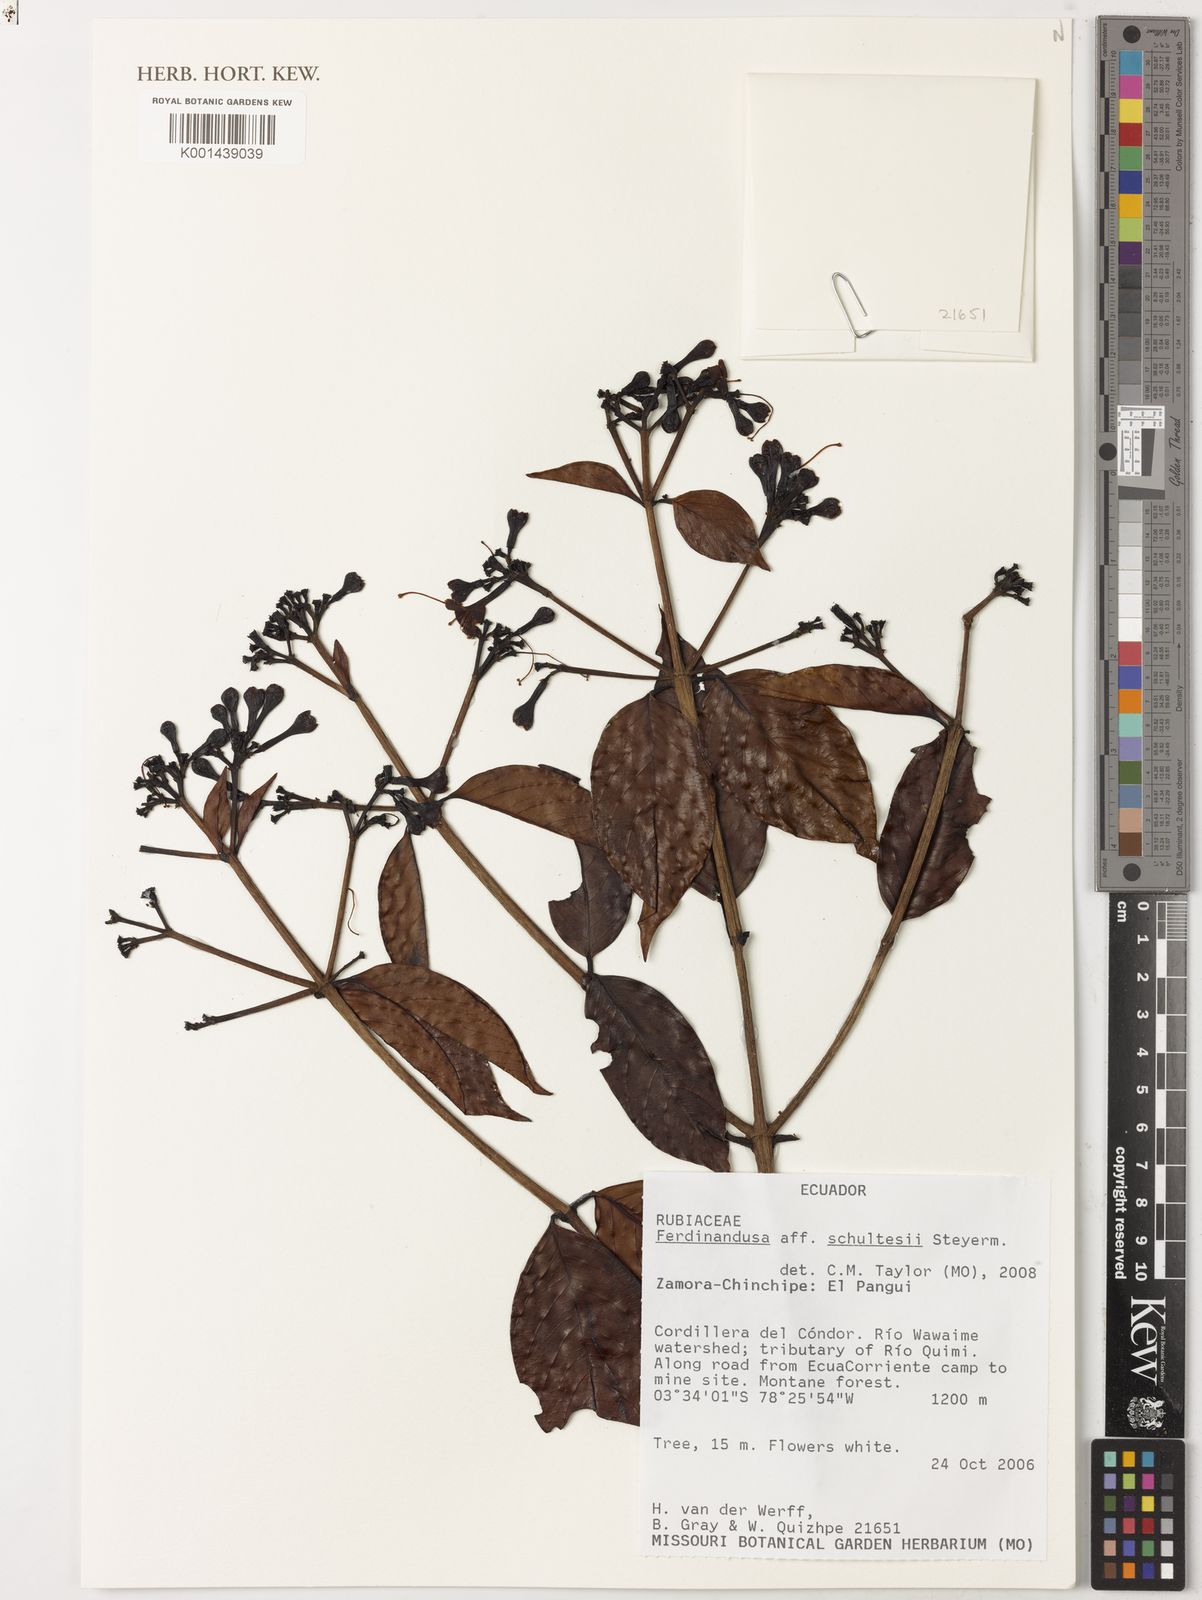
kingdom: Plantae
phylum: Tracheophyta
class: Magnoliopsida
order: Gentianales
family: Rubiaceae
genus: Ferdinandusa
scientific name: Ferdinandusa schultesii
